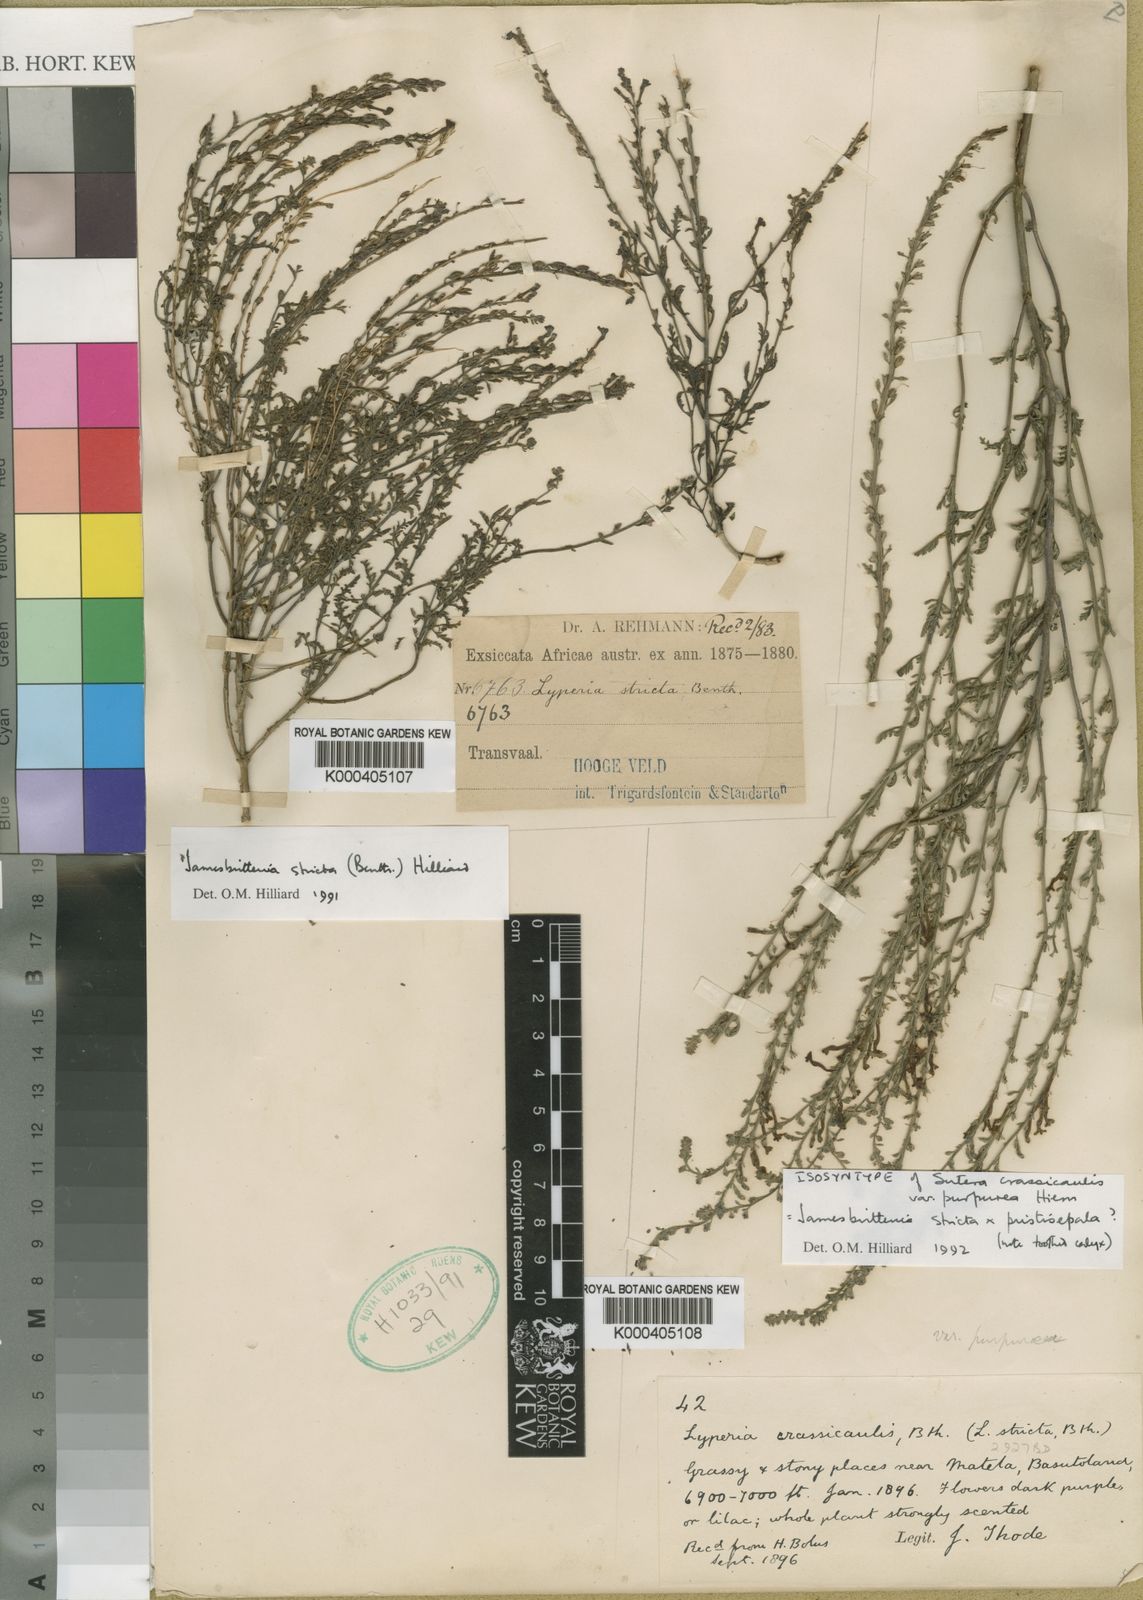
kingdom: Plantae
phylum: Tracheophyta
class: Magnoliopsida
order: Lamiales
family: Scrophulariaceae
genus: Jamesbrittenia
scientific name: Jamesbrittenia stricta
